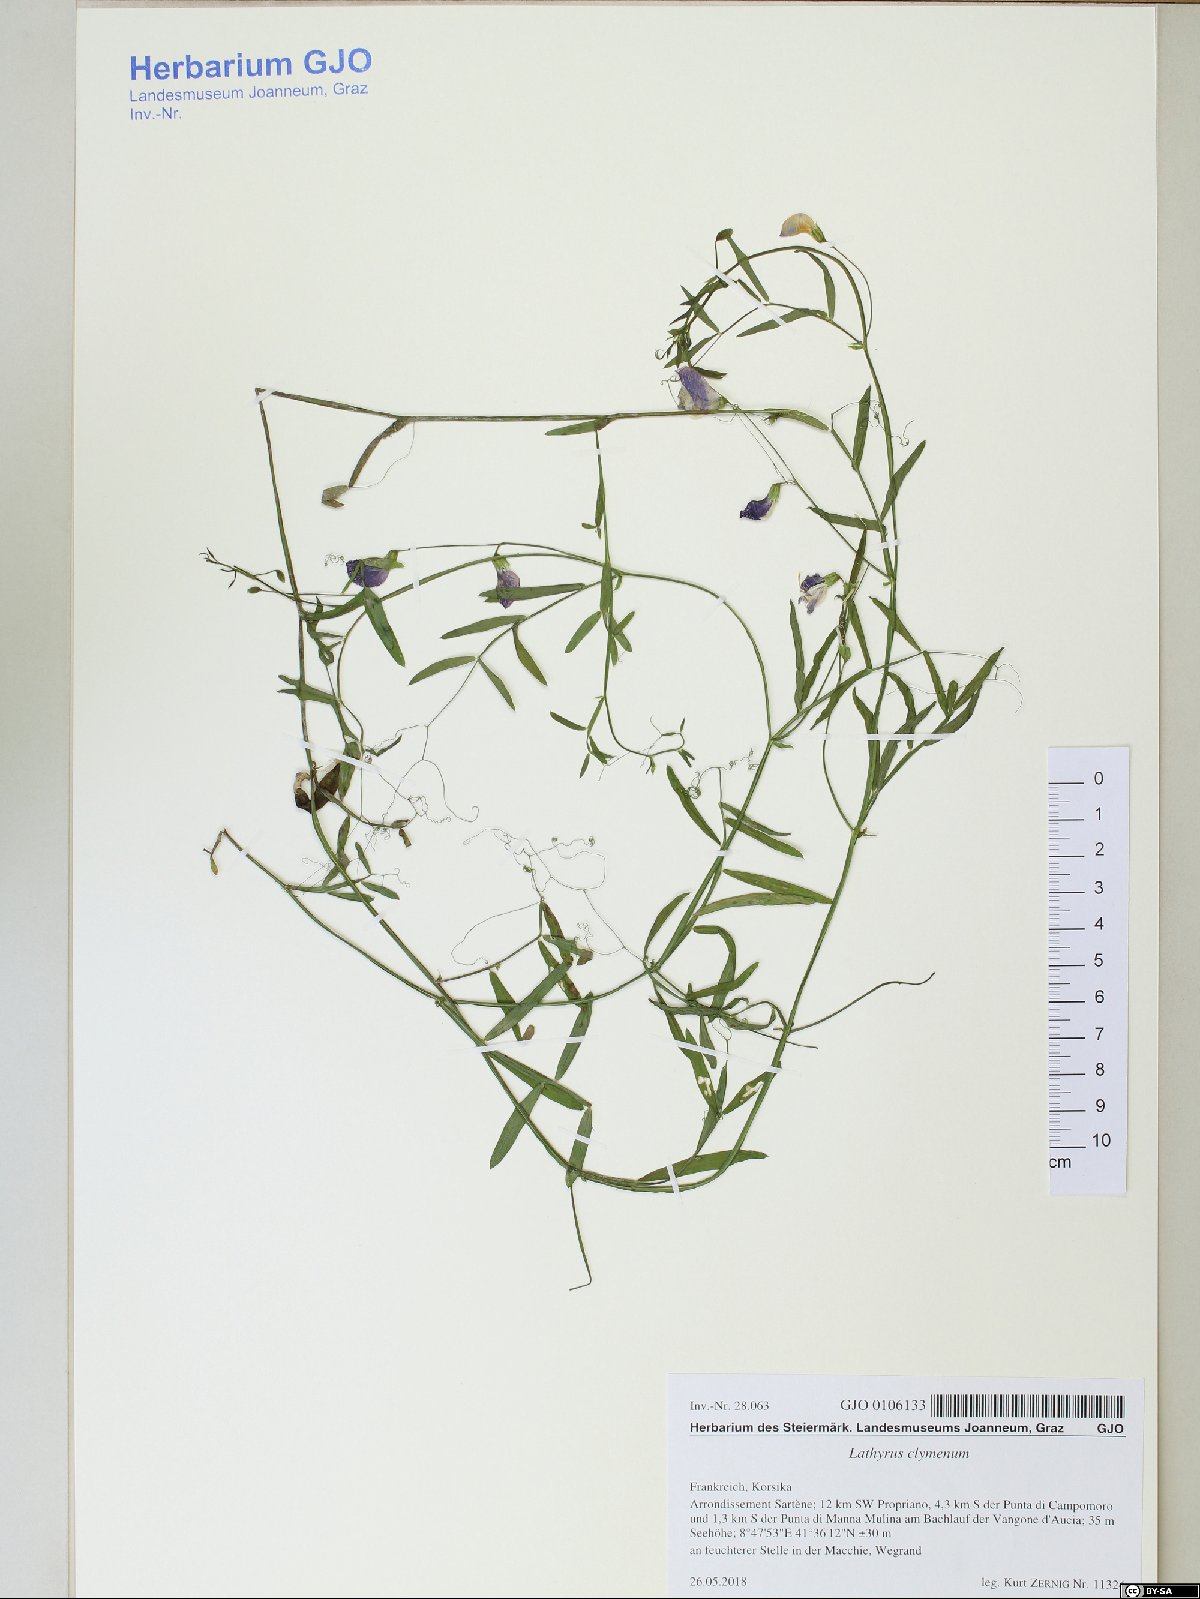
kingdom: Plantae
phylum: Tracheophyta
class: Magnoliopsida
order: Fabales
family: Fabaceae
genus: Lathyrus
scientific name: Lathyrus clymenum
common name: Spanish vetchling
